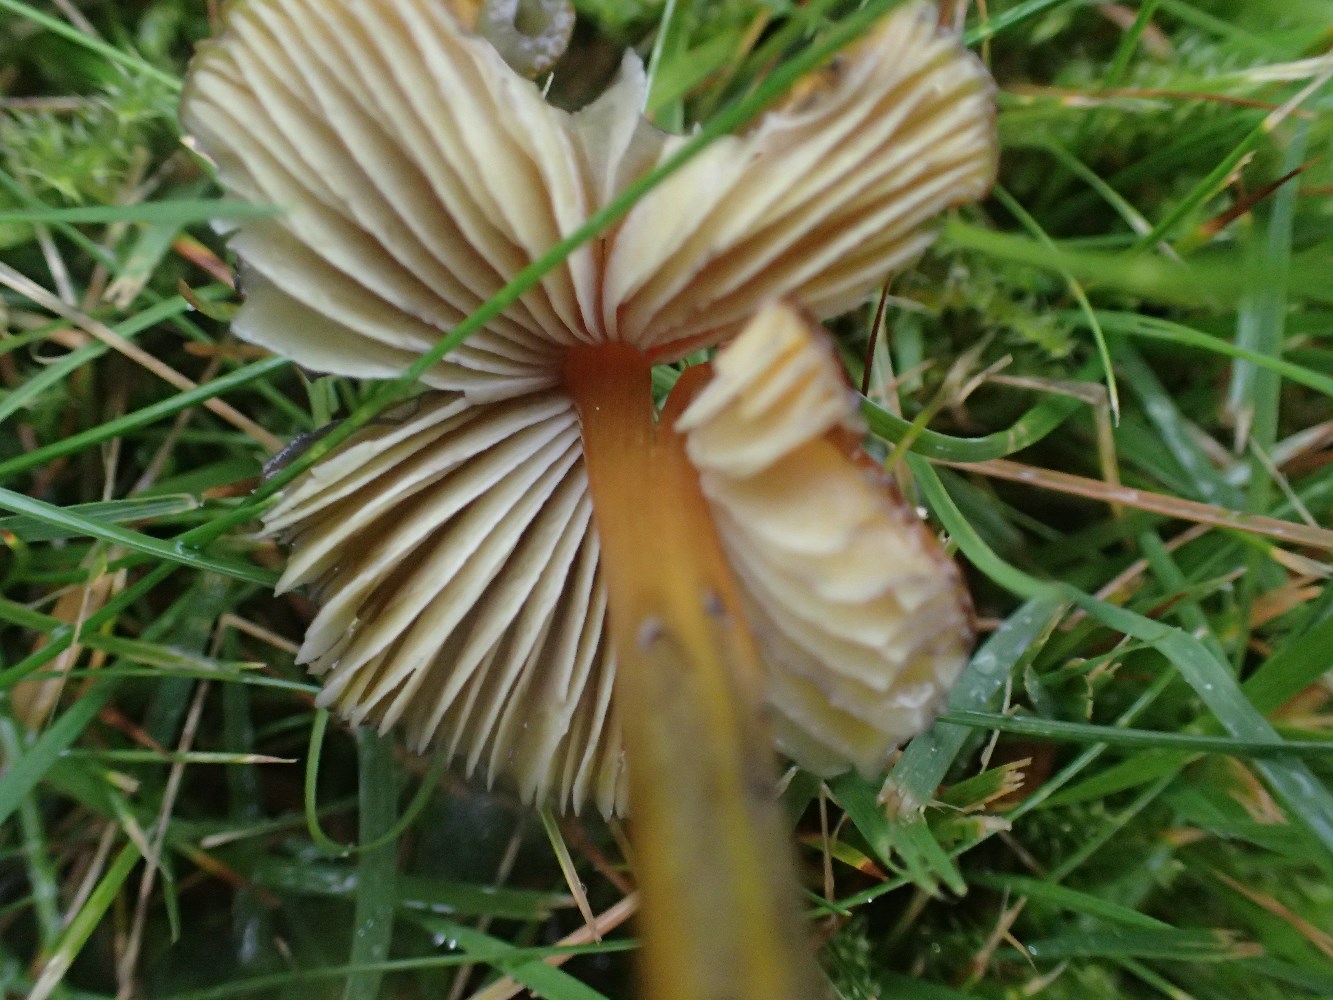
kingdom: Fungi
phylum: Basidiomycota
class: Agaricomycetes
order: Agaricales
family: Hygrophoraceae
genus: Hygrocybe
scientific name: Hygrocybe conica
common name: kegle-vokshat
